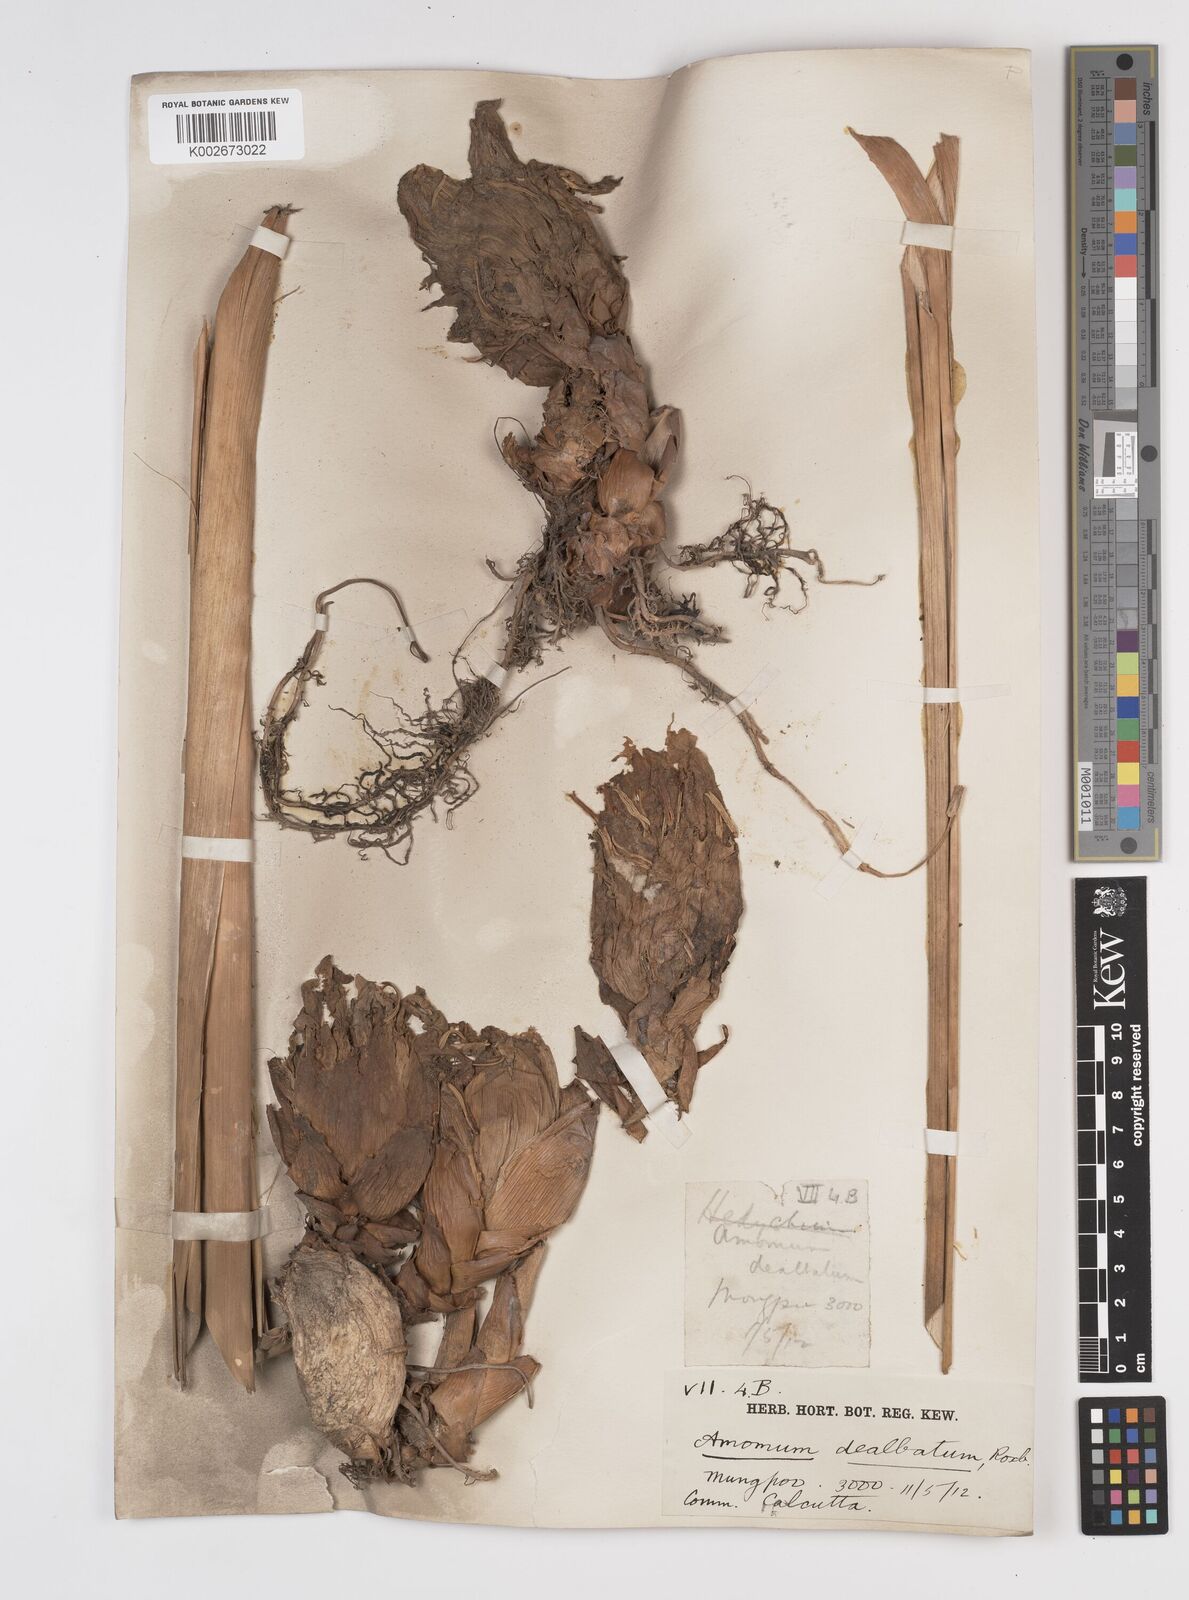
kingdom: Plantae
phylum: Tracheophyta
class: Liliopsida
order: Zingiberales
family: Zingiberaceae
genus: Amomum
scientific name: Amomum dealbatum
